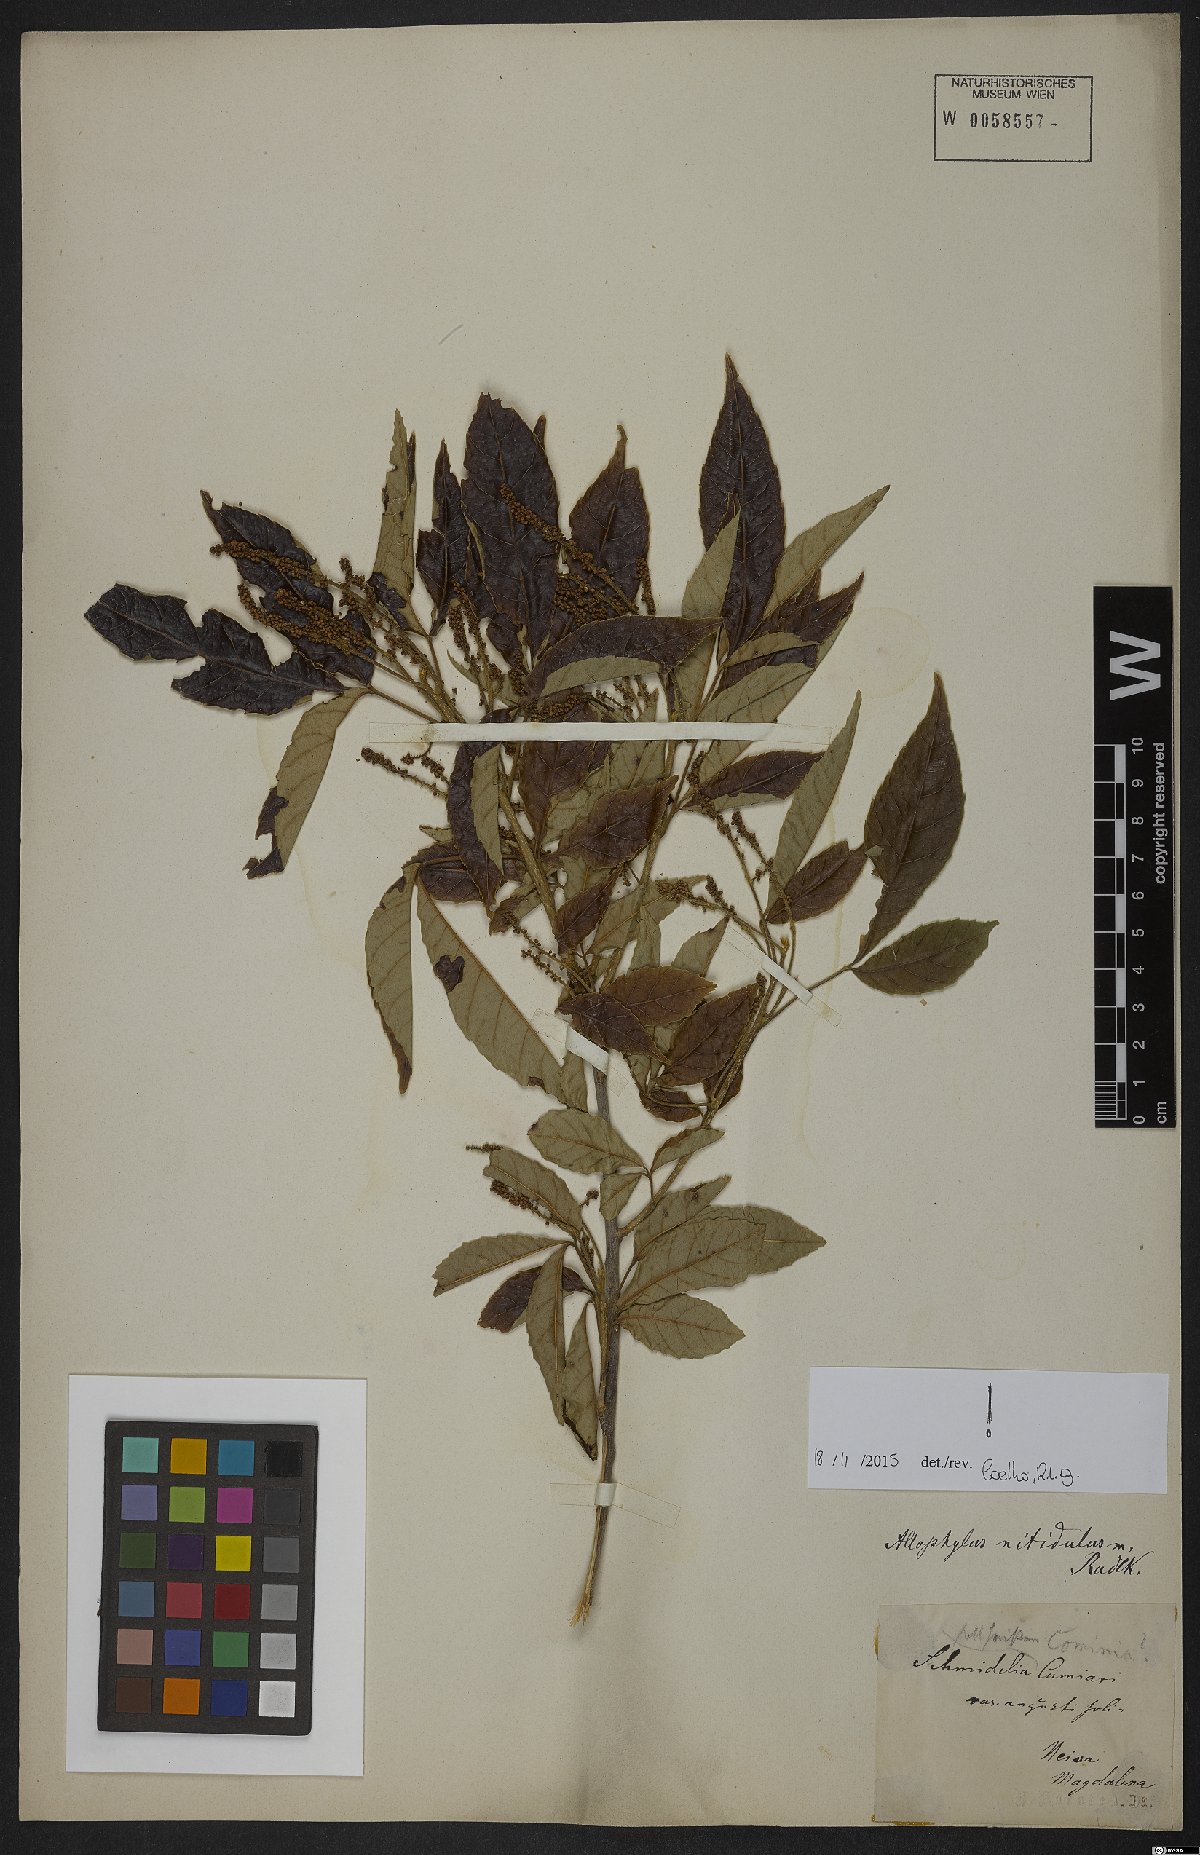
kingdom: Plantae
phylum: Tracheophyta
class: Magnoliopsida
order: Sapindales
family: Sapindaceae
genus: Allophylus
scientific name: Allophylus
